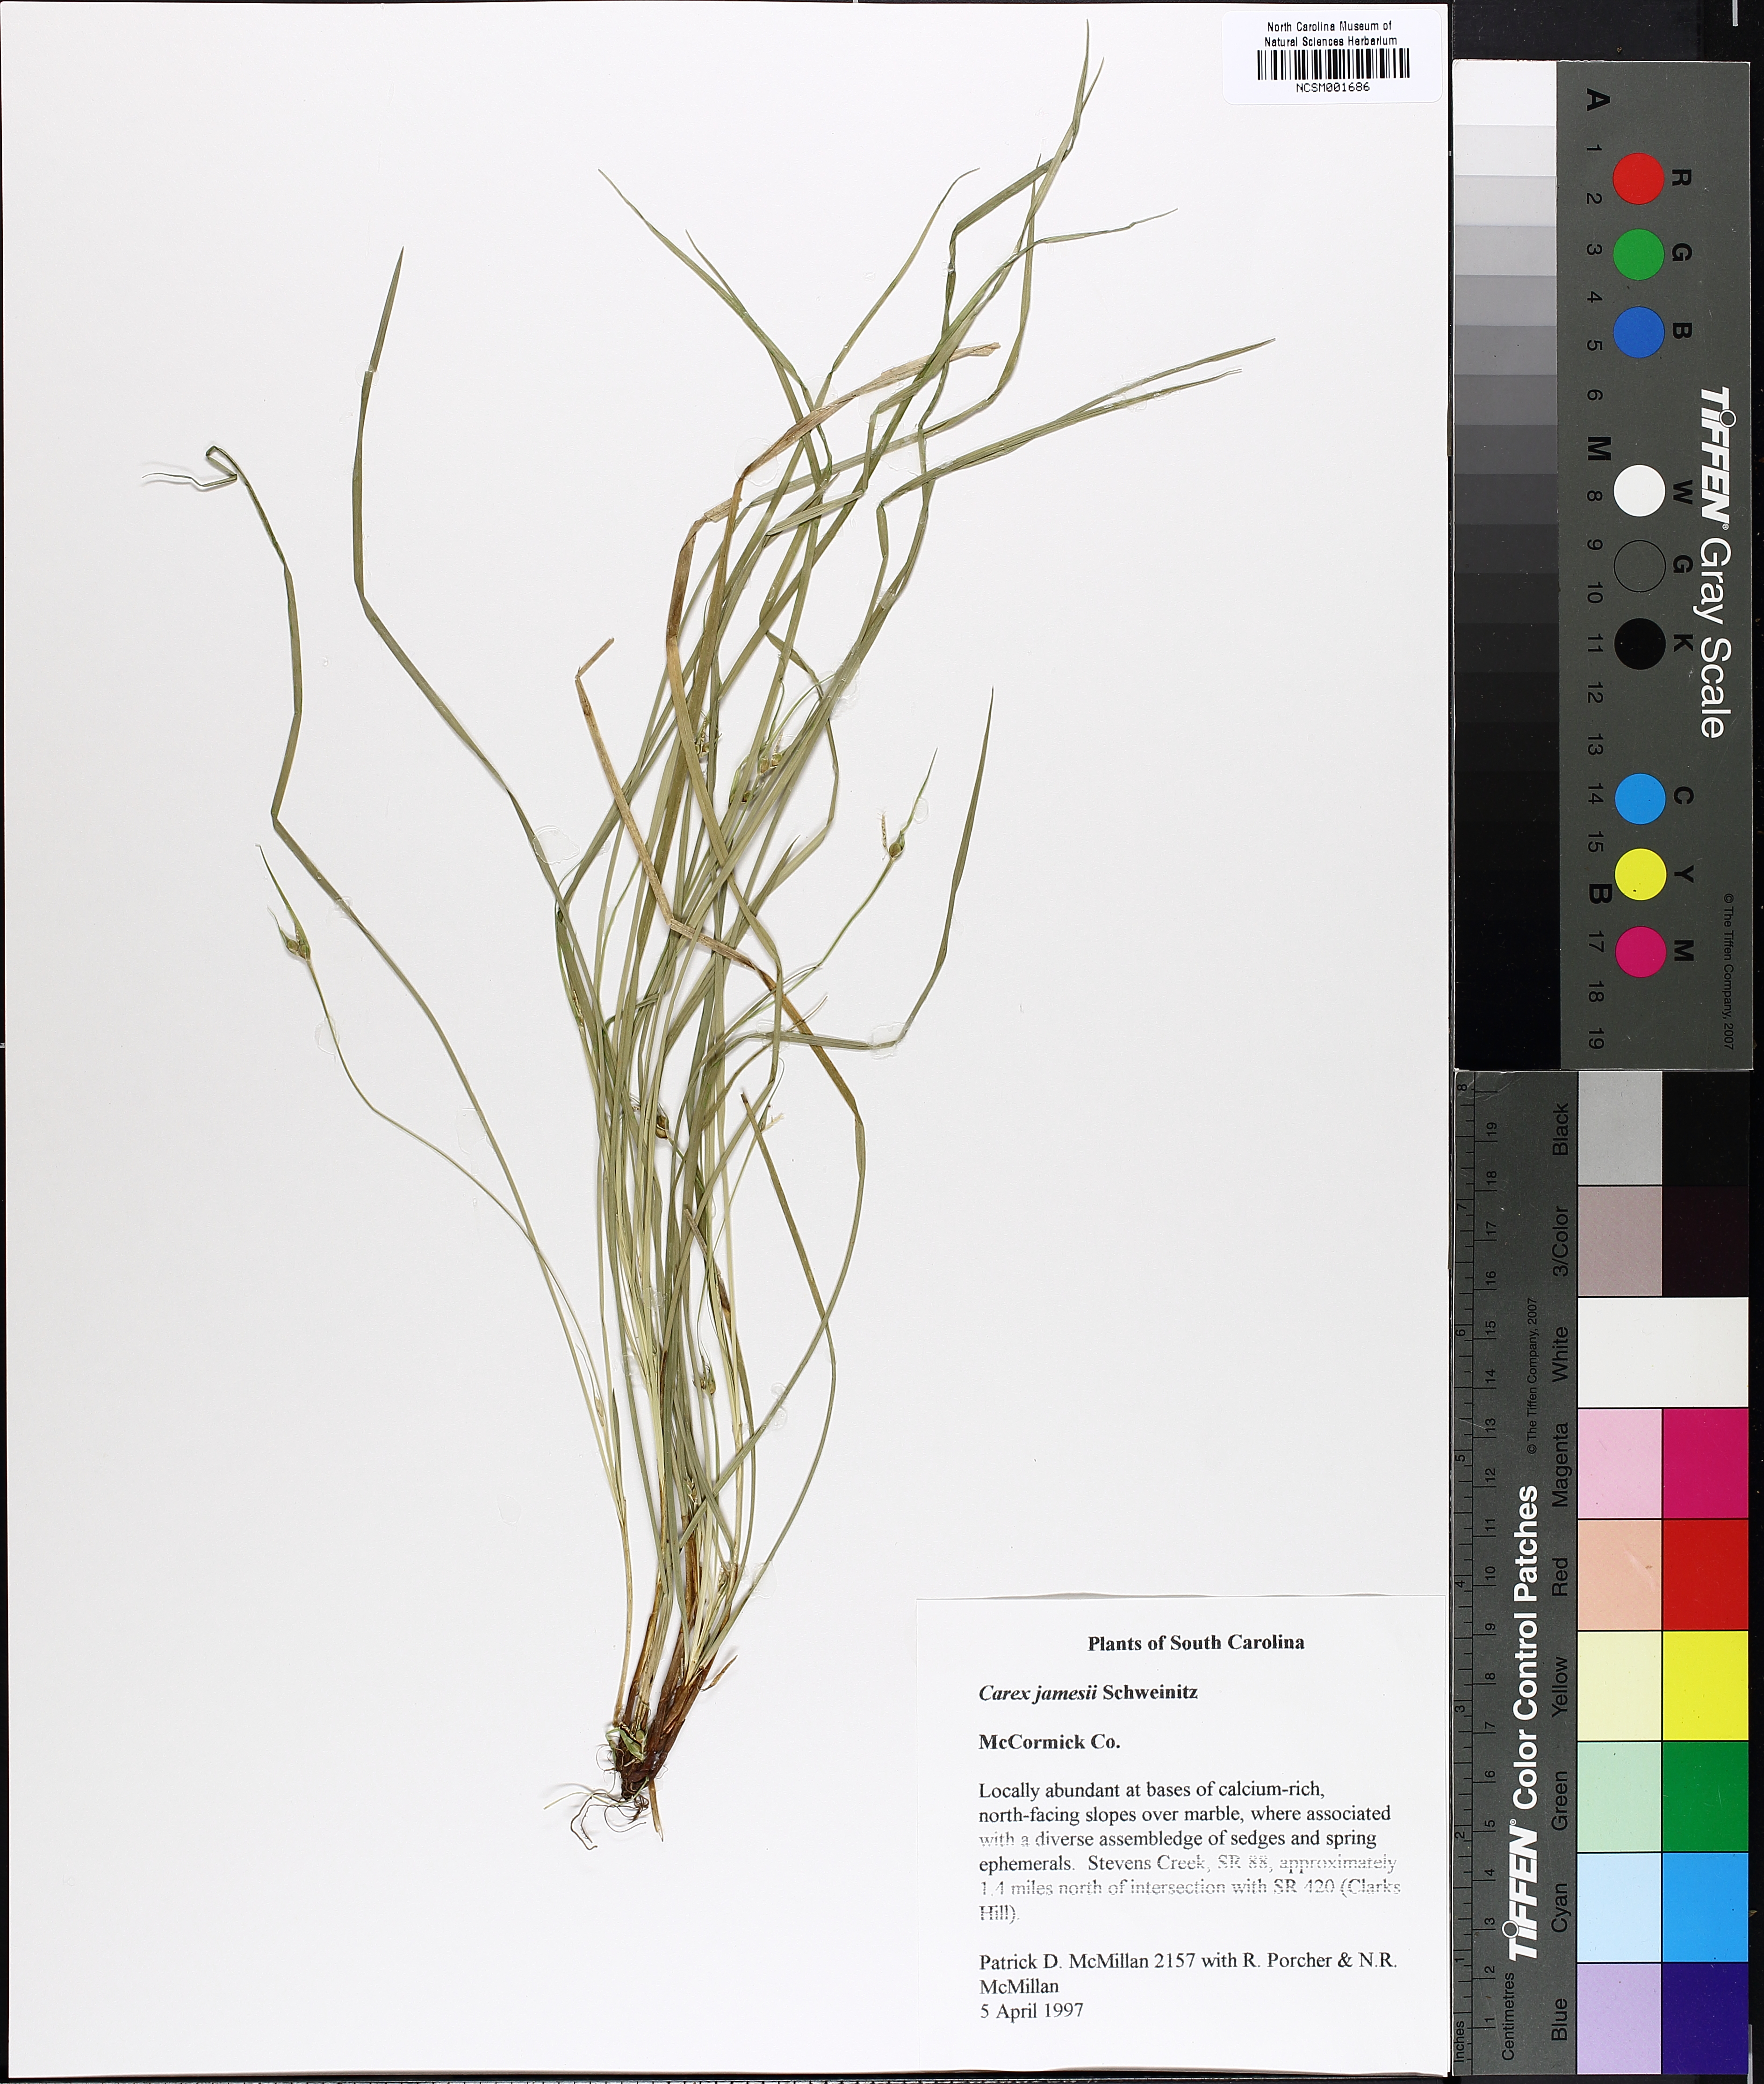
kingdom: Plantae
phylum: Tracheophyta
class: Liliopsida
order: Poales
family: Cyperaceae
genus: Carex
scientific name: Carex jamesii
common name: Grass sedge
